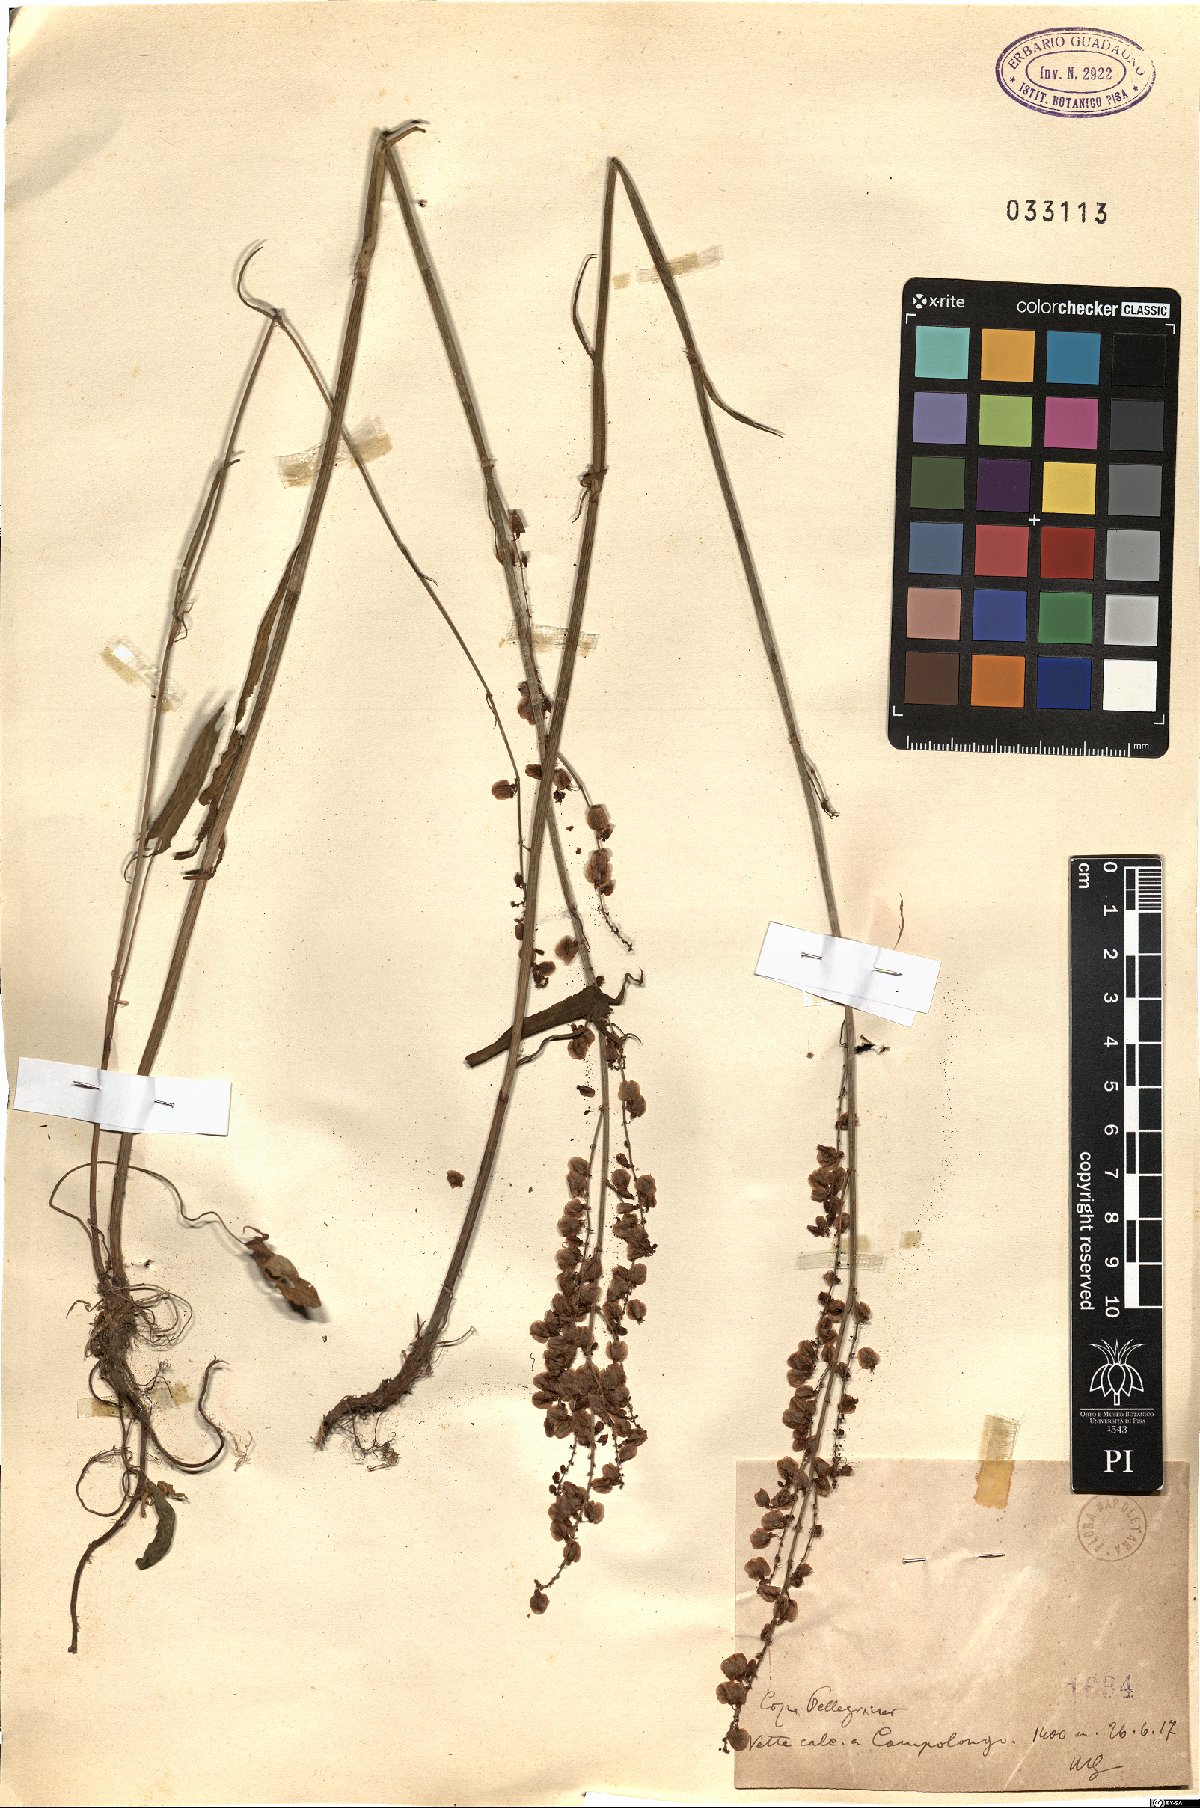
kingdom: Plantae
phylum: Tracheophyta
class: Magnoliopsida
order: Caryophyllales
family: Polygonaceae
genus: Rumex
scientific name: Rumex
